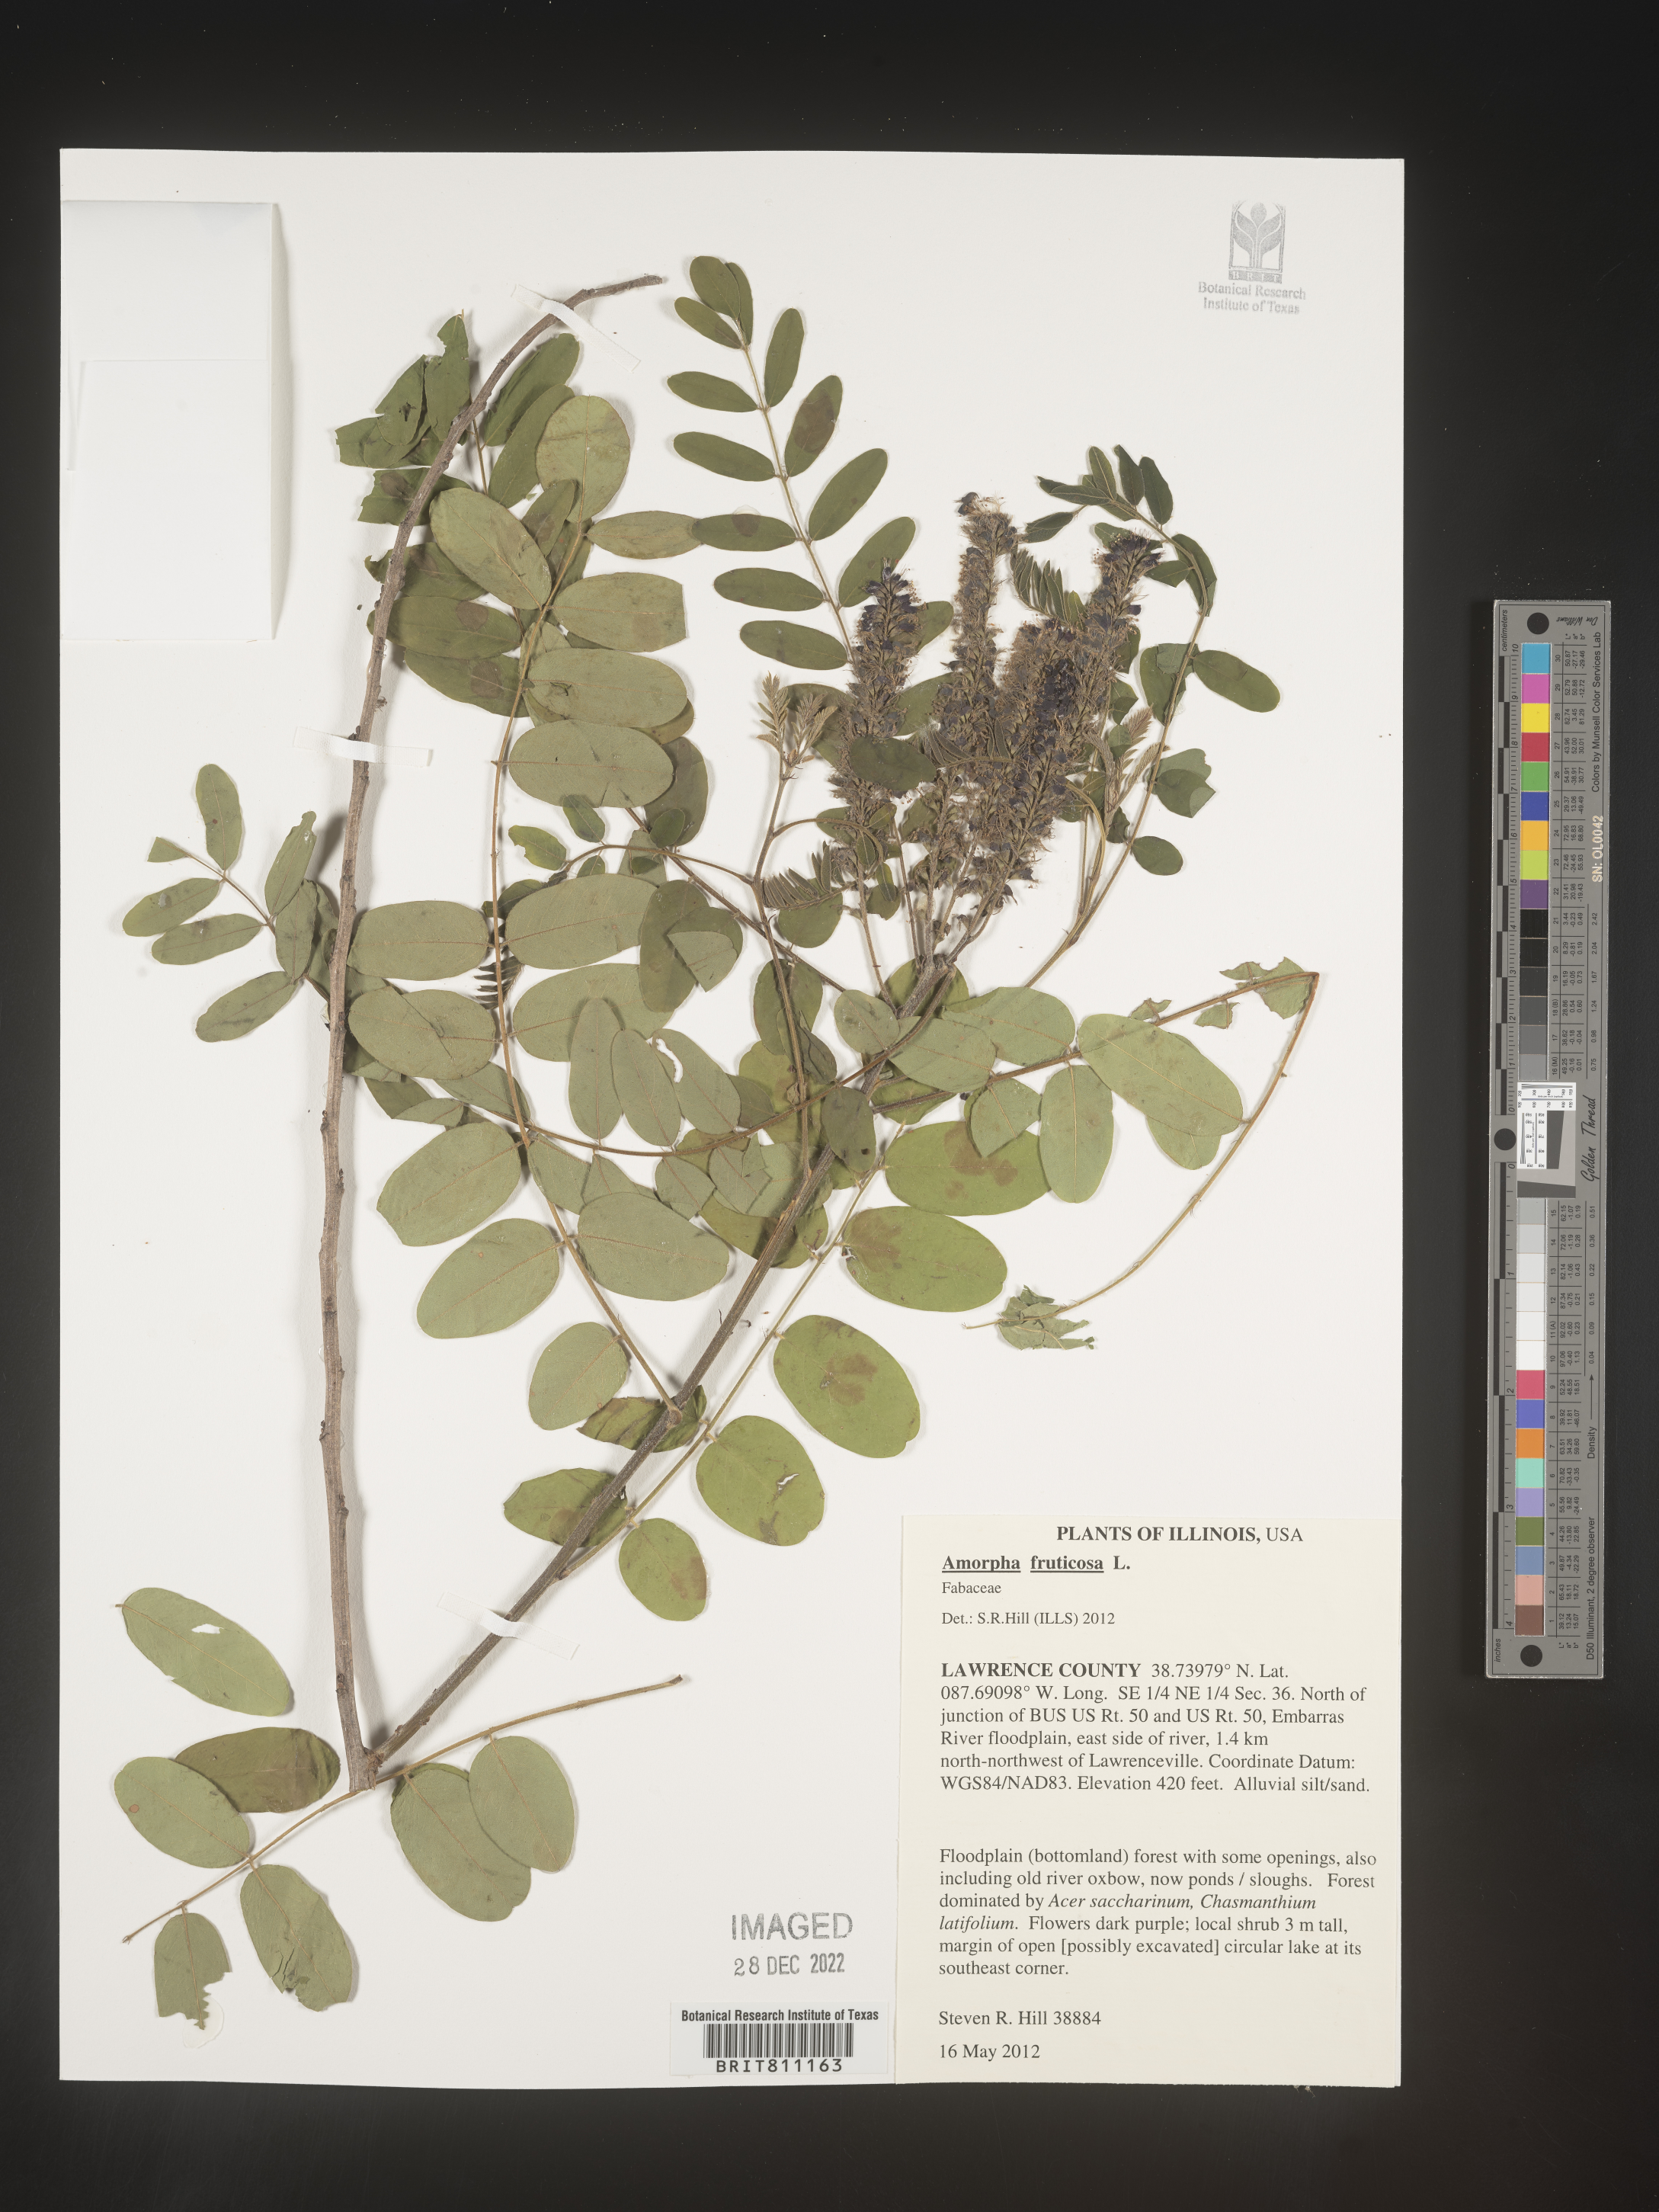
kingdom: Plantae
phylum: Tracheophyta
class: Magnoliopsida
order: Fabales
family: Fabaceae
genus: Amorpha
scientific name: Amorpha fruticosa
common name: False indigo
